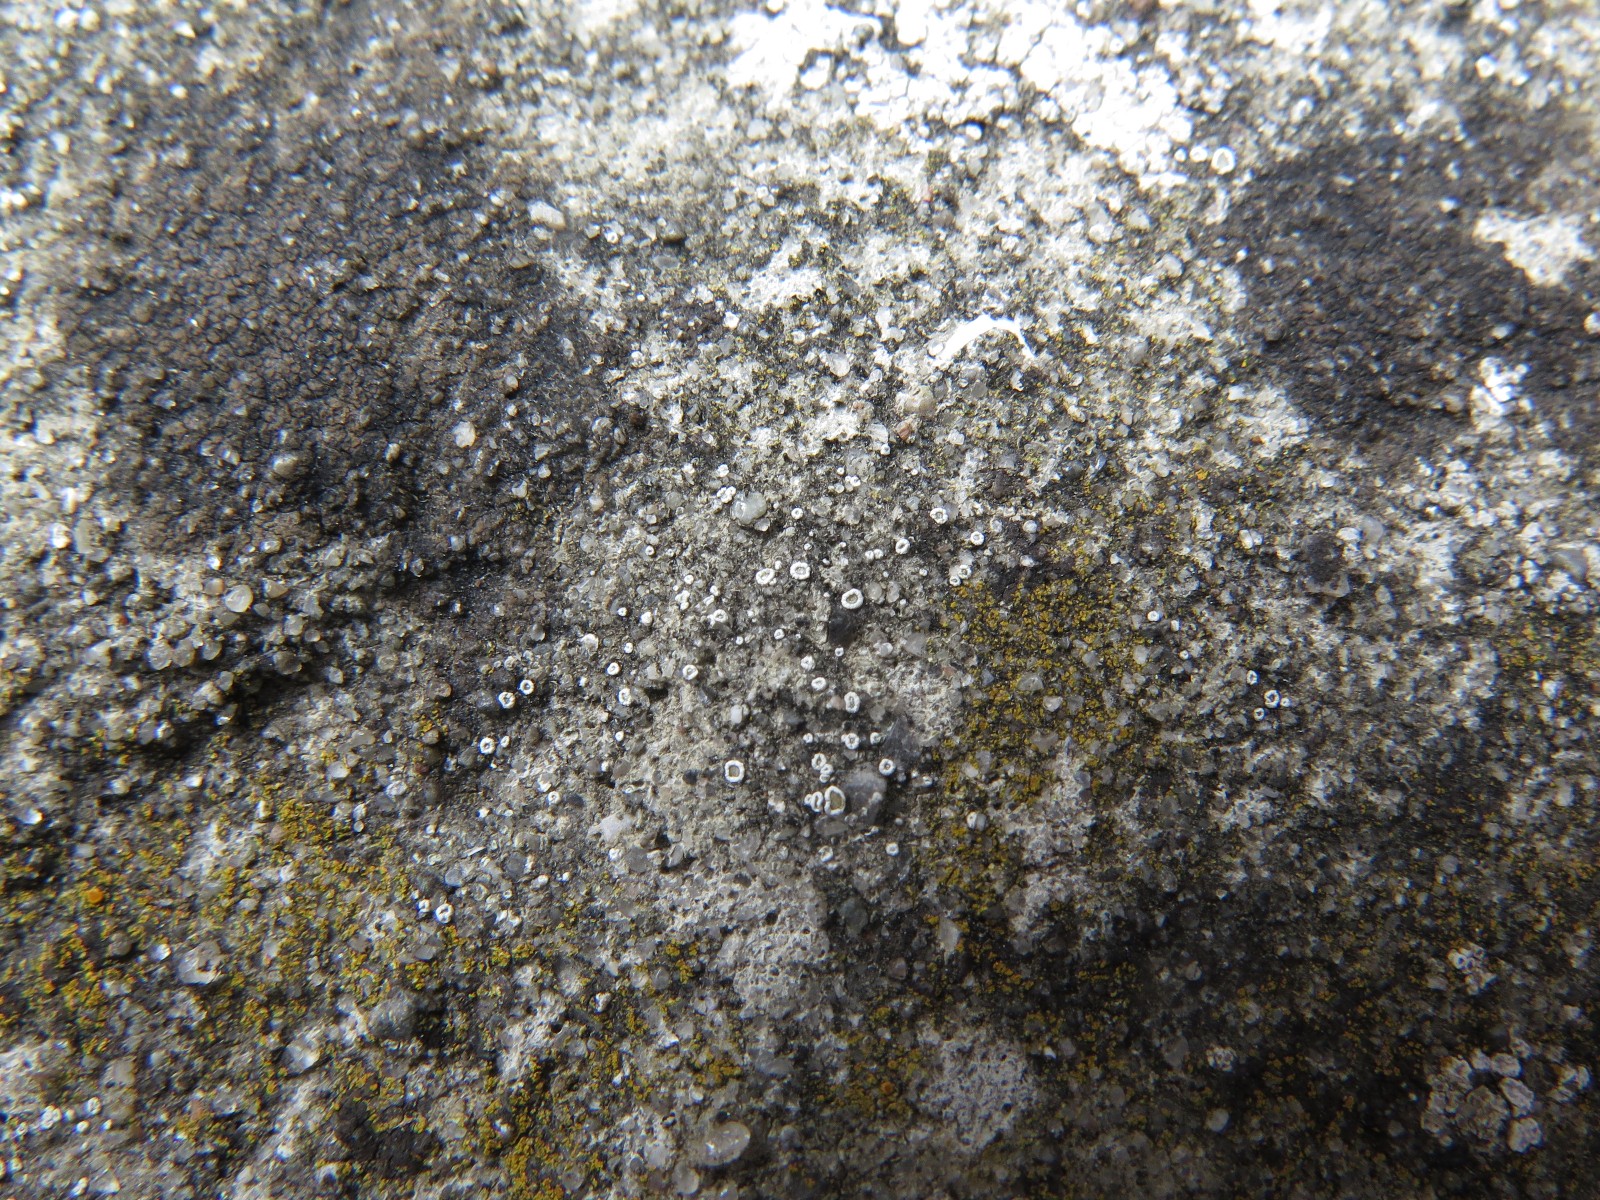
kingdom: Fungi
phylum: Ascomycota
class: Lecanoromycetes
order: Lecanorales
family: Lecanoraceae
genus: Polyozosia
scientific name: Polyozosia dispersa
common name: spredt kantskivelav
